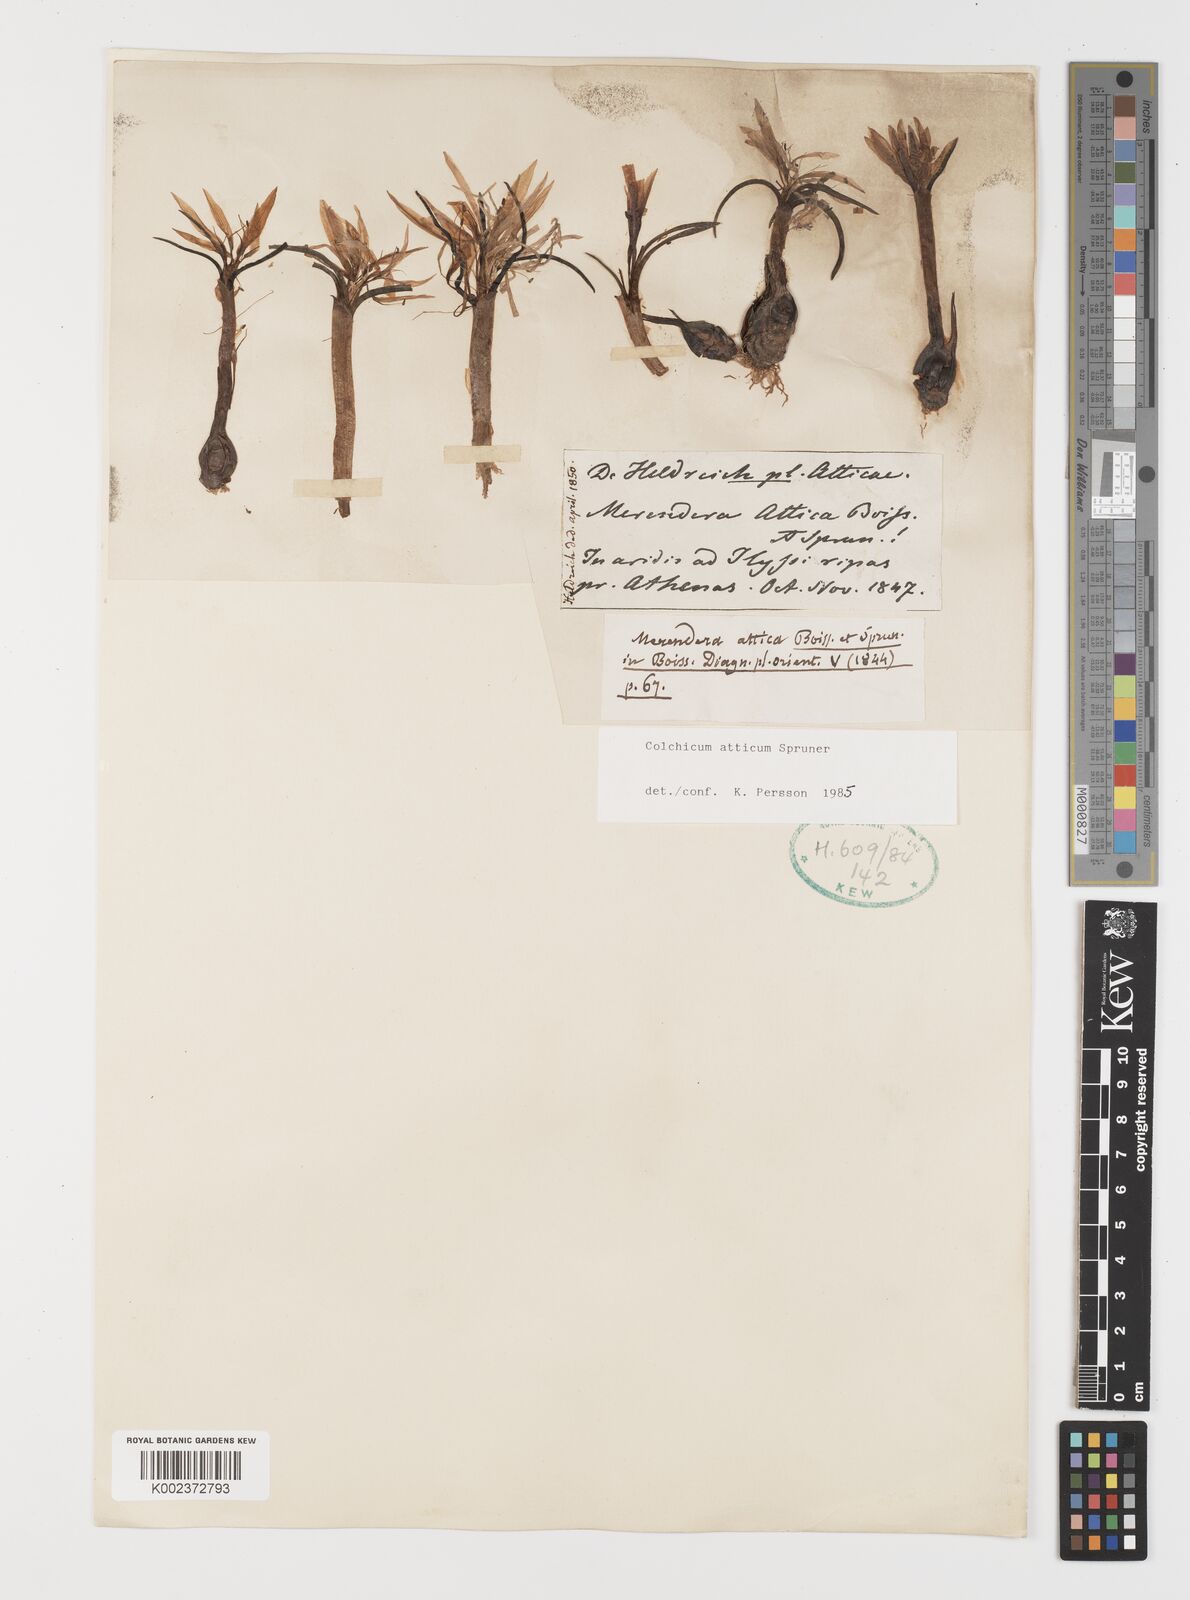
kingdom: Plantae
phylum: Tracheophyta
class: Liliopsida
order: Liliales
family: Colchicaceae
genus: Colchicum
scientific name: Colchicum atticum
